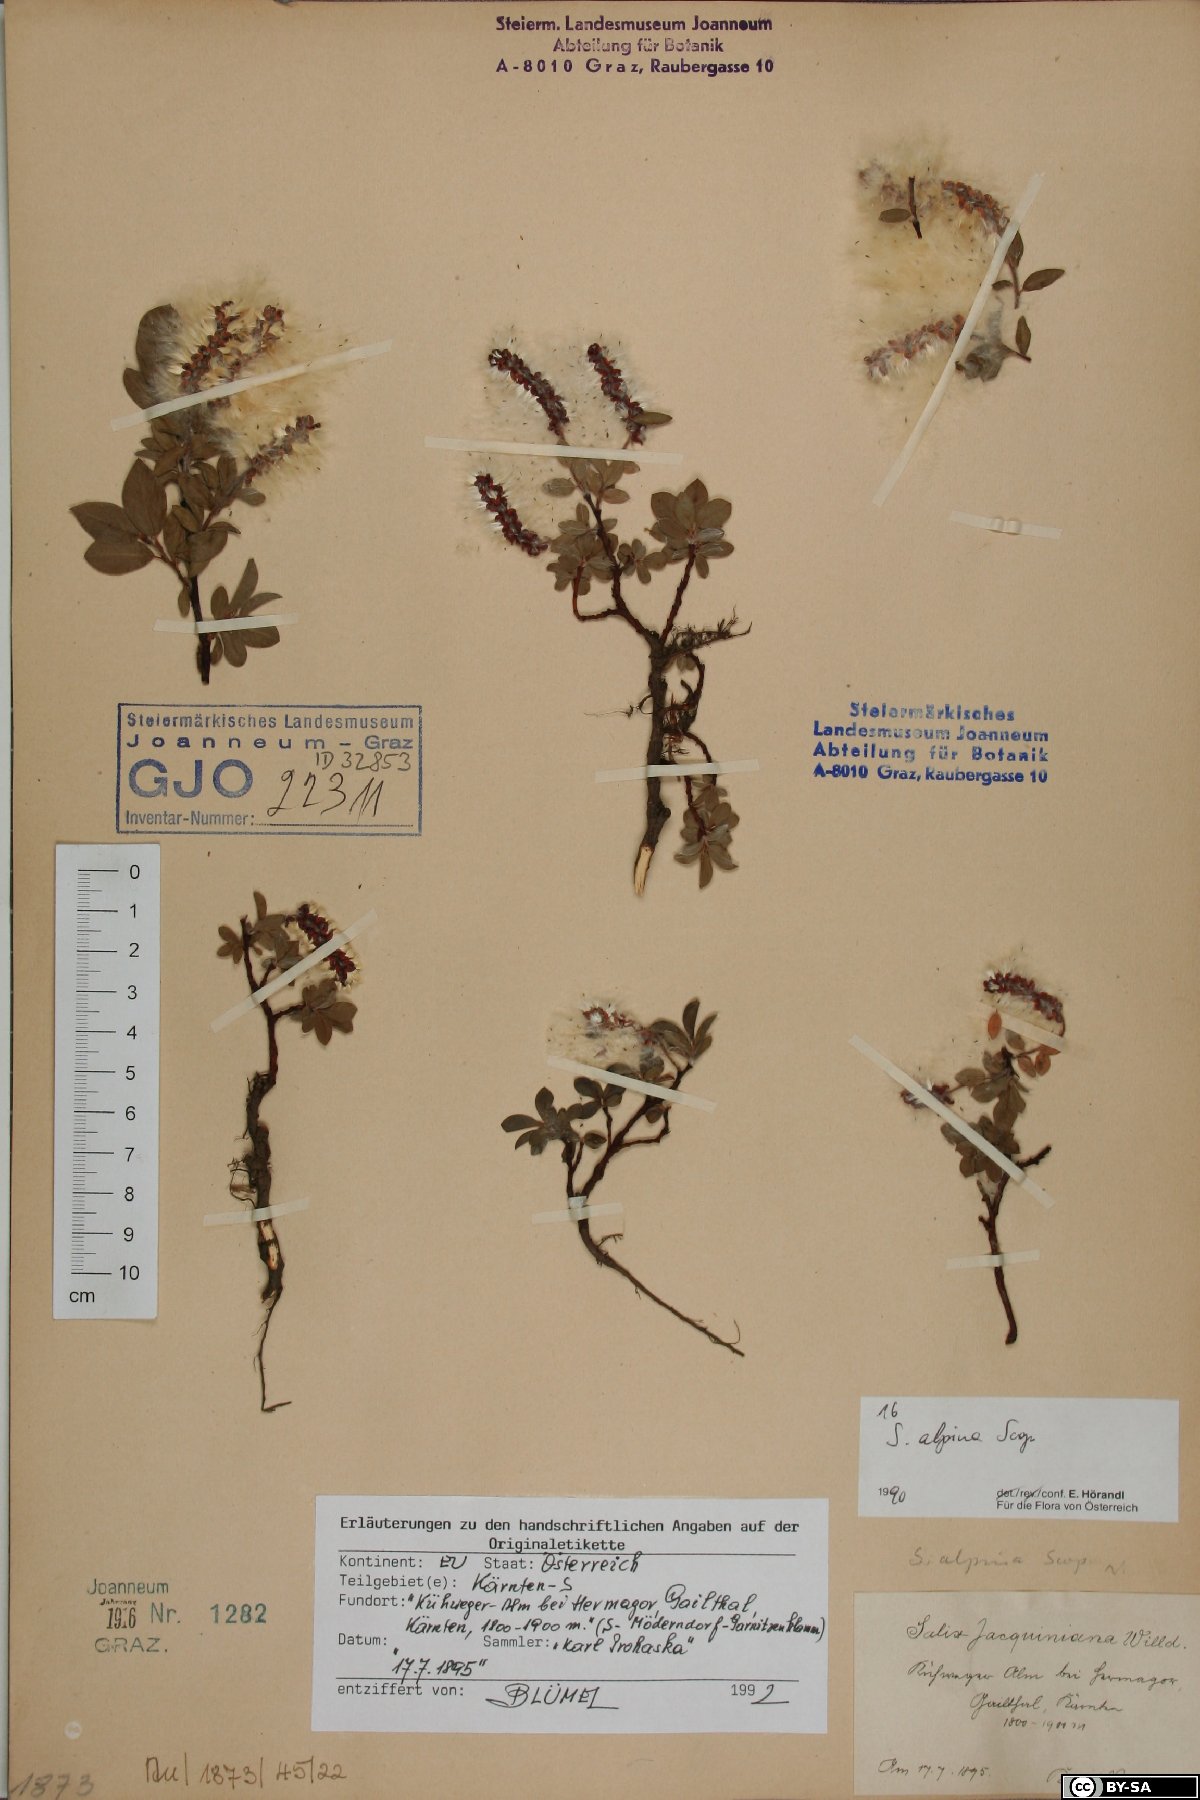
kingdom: Plantae
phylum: Tracheophyta
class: Magnoliopsida
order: Malpighiales
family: Salicaceae
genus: Salix
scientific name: Salix alpina
